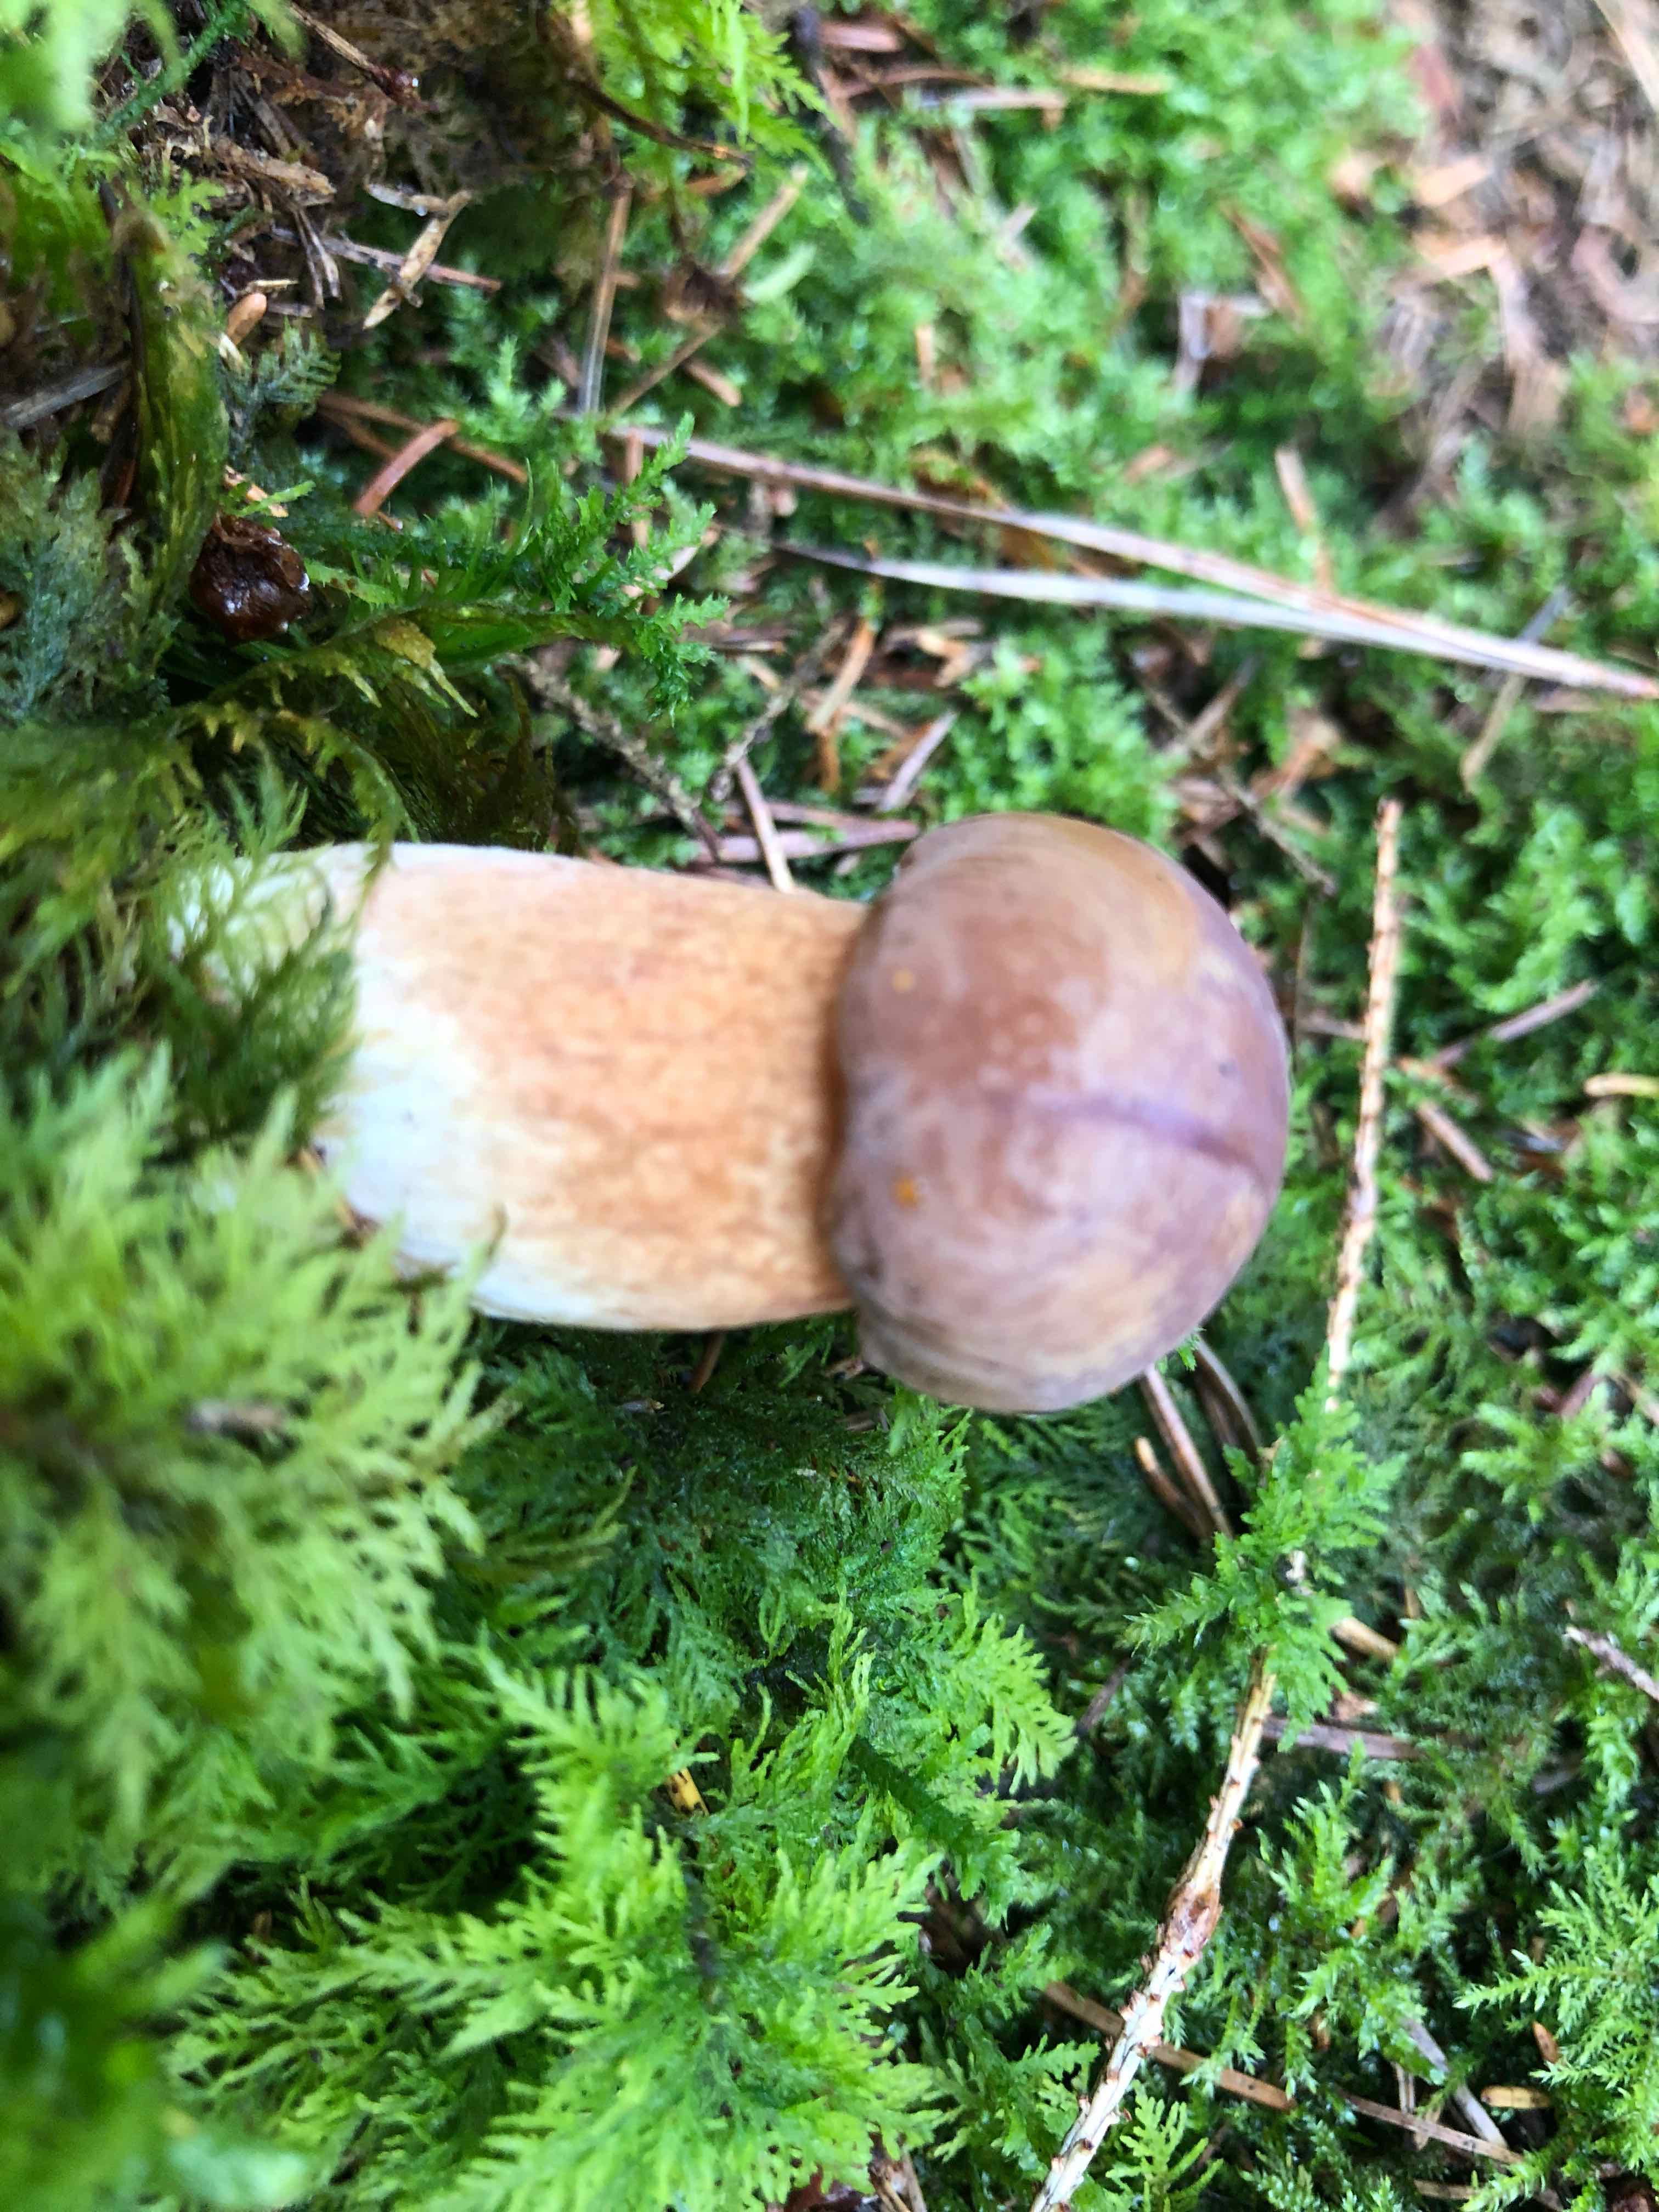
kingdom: Fungi
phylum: Basidiomycota
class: Agaricomycetes
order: Boletales
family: Boletaceae
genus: Imleria
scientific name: Imleria badia
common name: brunstokket rørhat
